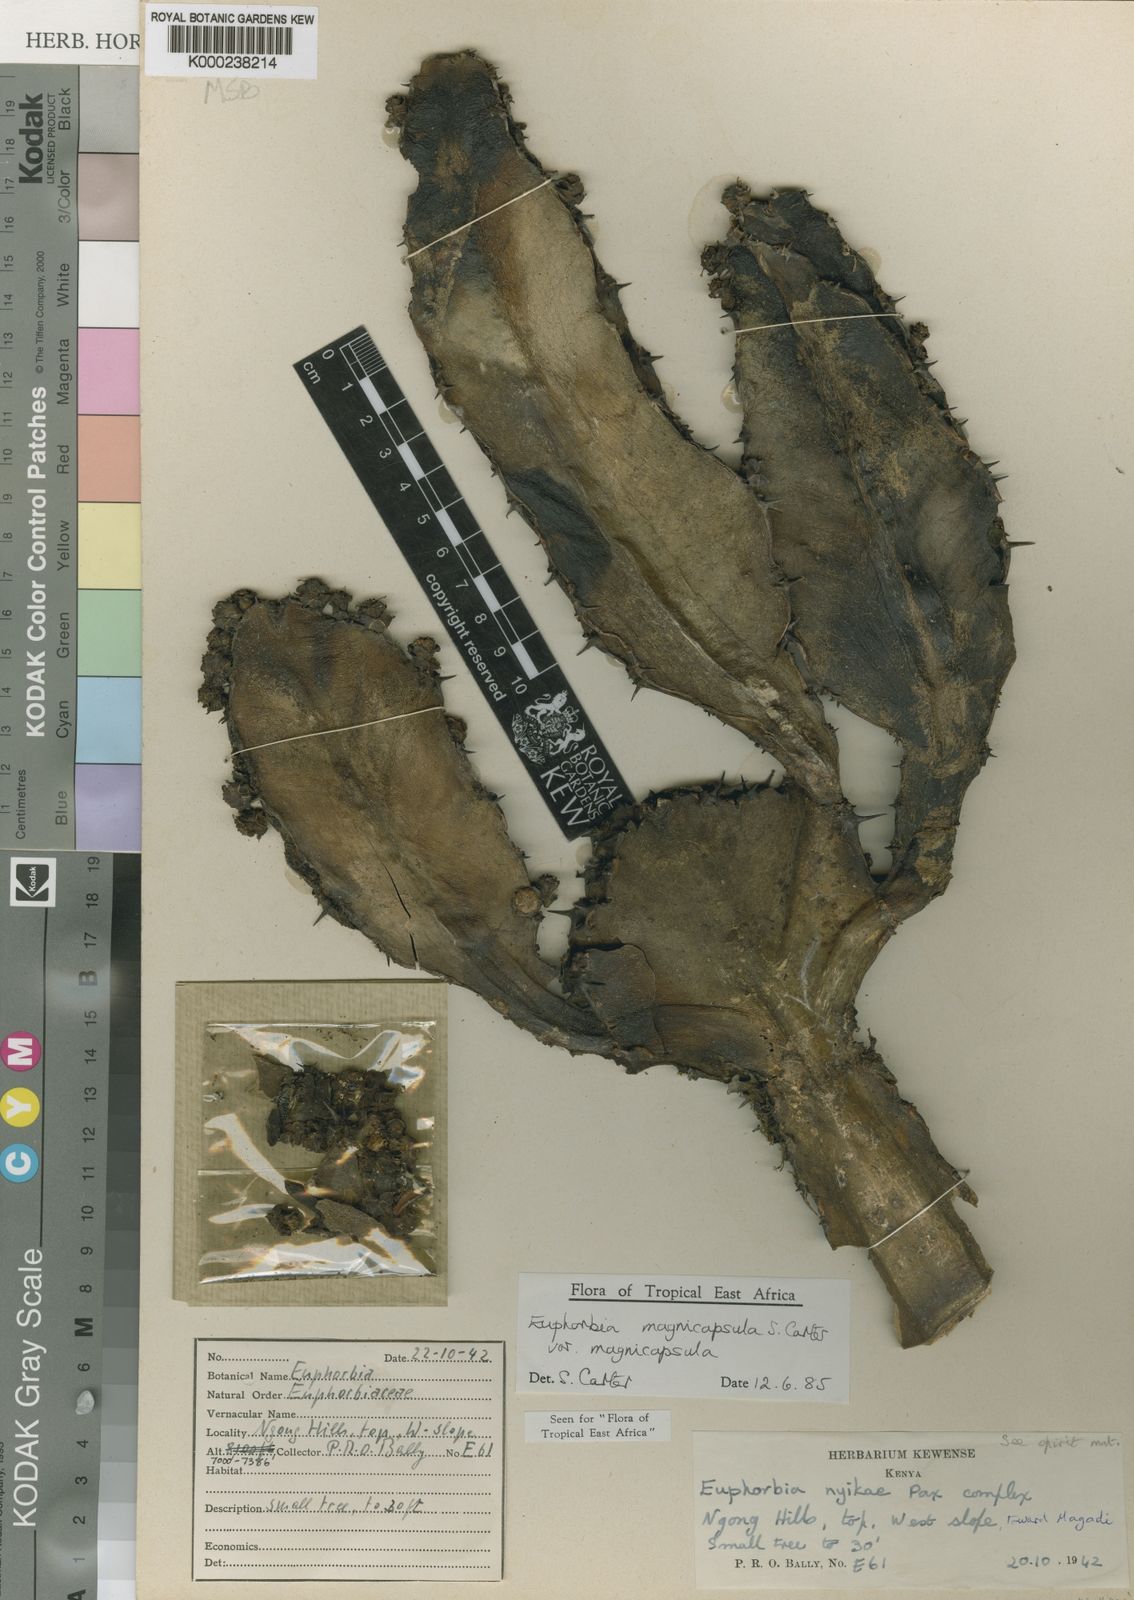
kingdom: Plantae
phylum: Tracheophyta
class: Magnoliopsida
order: Malpighiales
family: Euphorbiaceae
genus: Euphorbia
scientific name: Euphorbia magnicapsula
